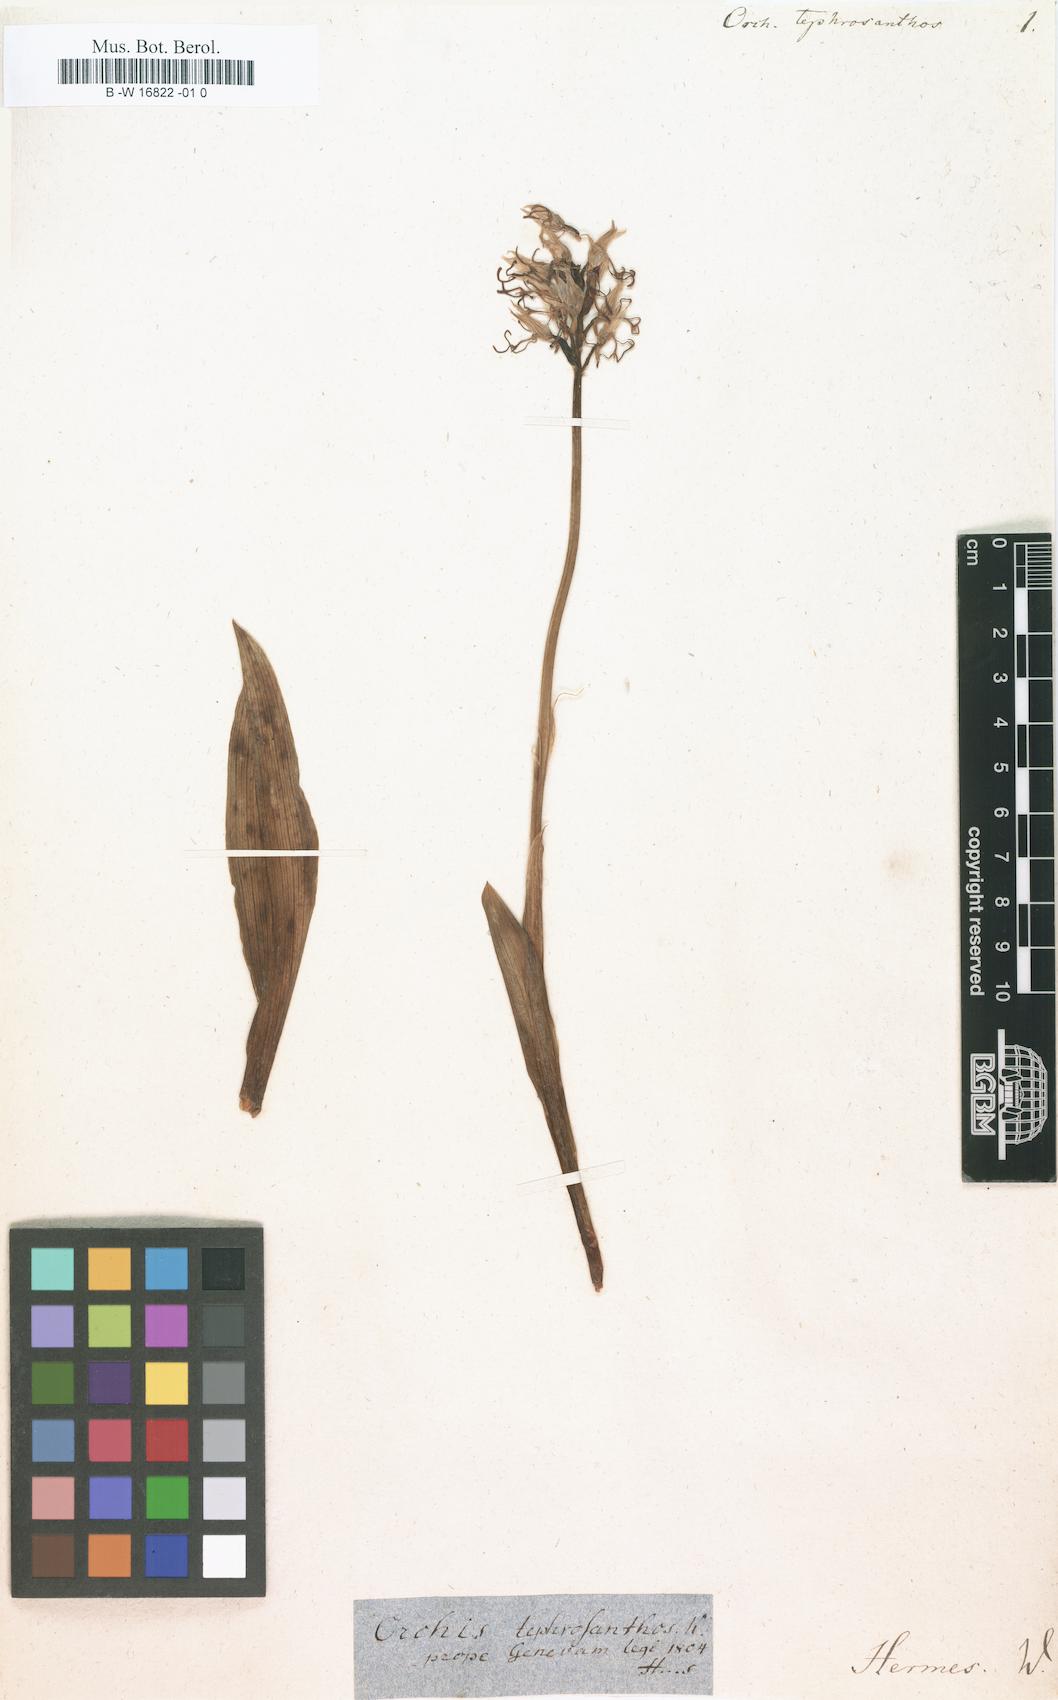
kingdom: Plantae
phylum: Tracheophyta
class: Liliopsida
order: Asparagales
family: Orchidaceae
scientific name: Orchidaceae
